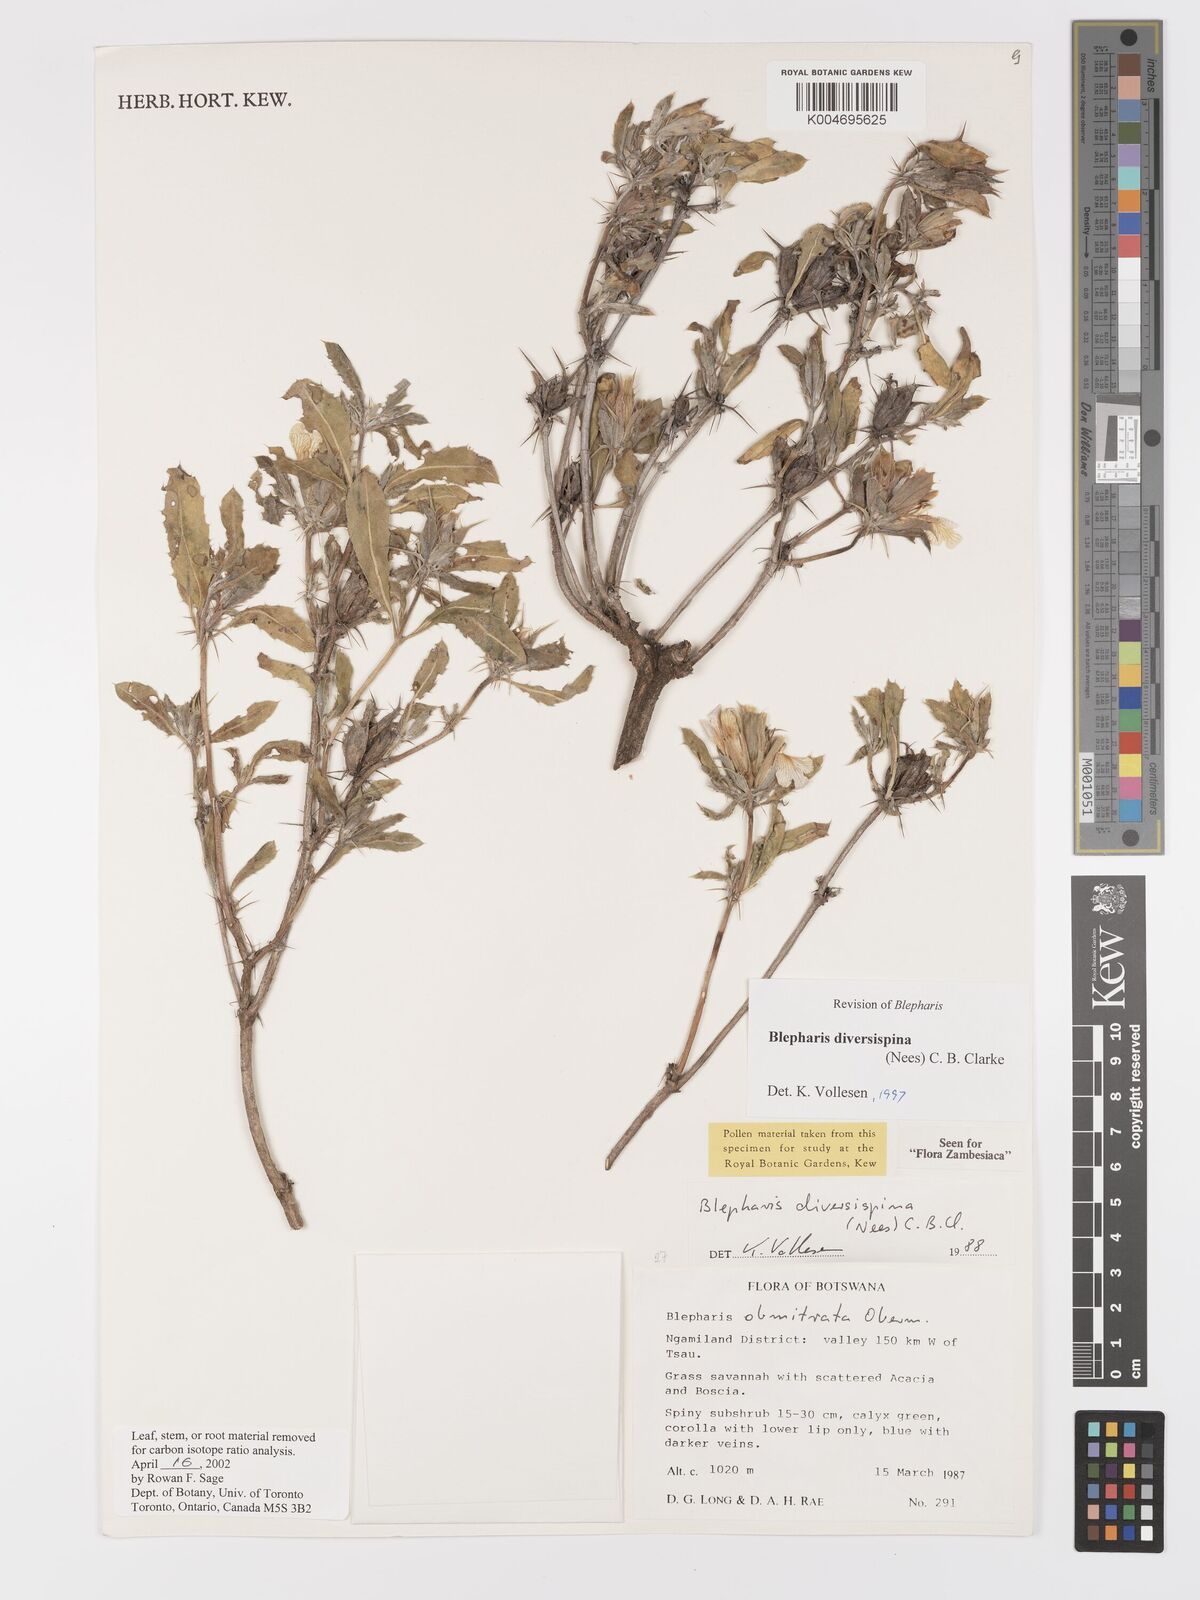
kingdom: Plantae
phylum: Tracheophyta
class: Magnoliopsida
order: Lamiales
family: Acanthaceae
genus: Blepharis
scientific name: Blepharis diversispina
